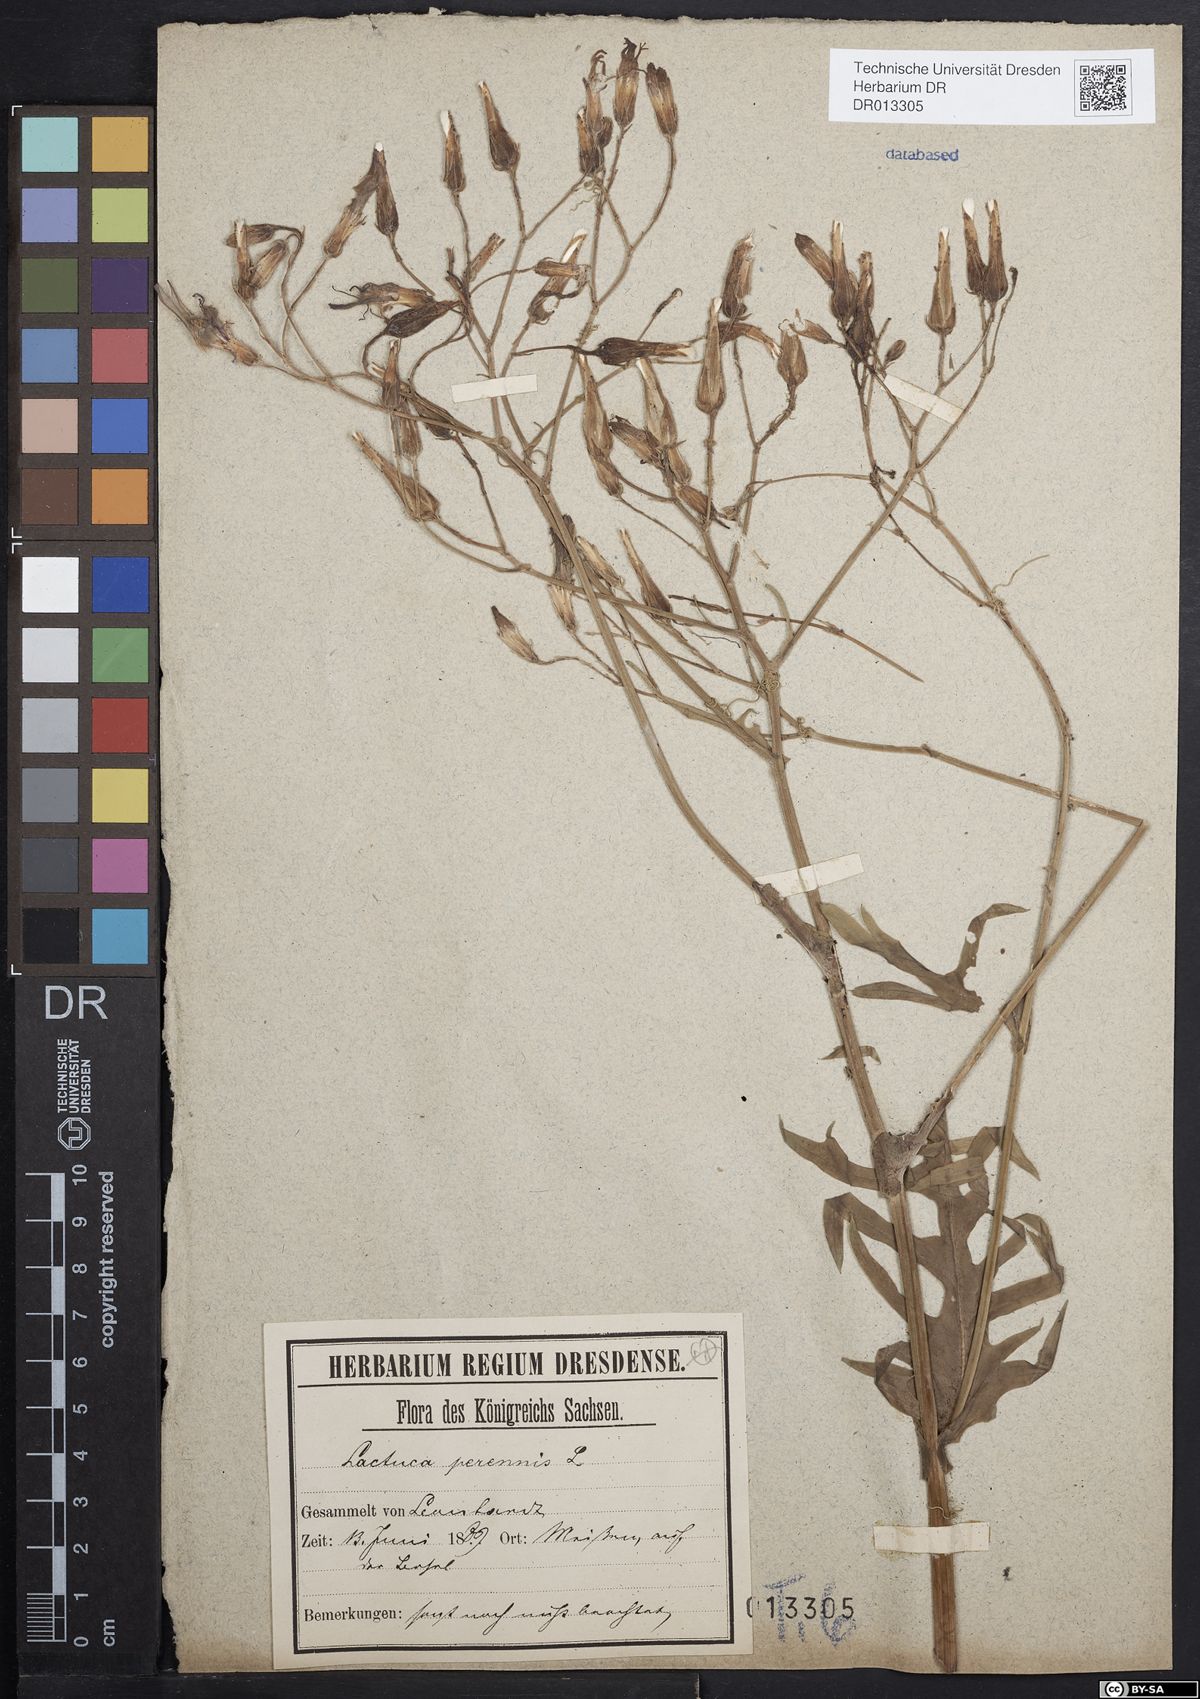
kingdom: Plantae
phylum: Tracheophyta
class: Magnoliopsida
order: Asterales
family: Asteraceae
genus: Lactuca
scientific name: Lactuca perennis
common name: Mountain lettuce
